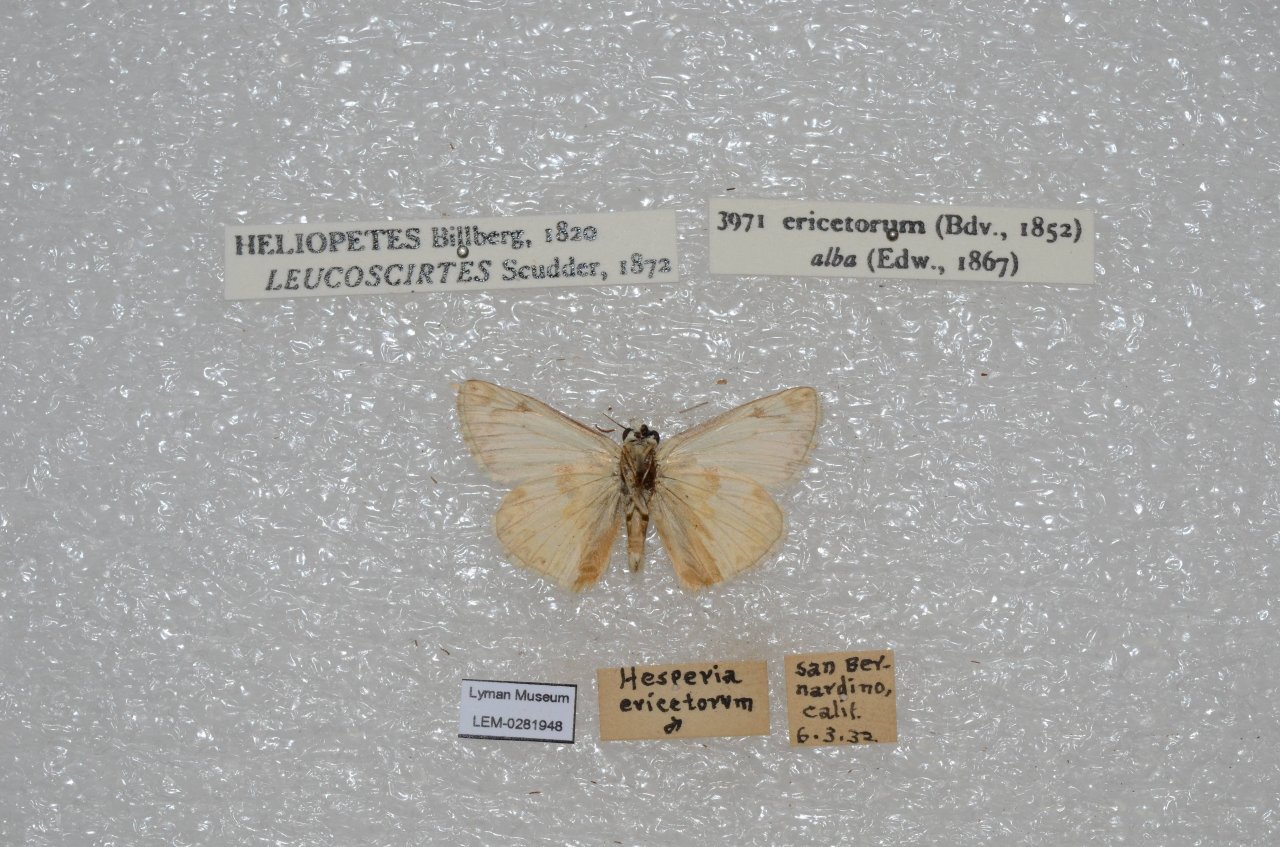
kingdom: Animalia
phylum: Arthropoda
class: Insecta
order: Lepidoptera
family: Hesperiidae
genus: Heliopetes
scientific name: Heliopetes ericetorum
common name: Northern White-Skipper
